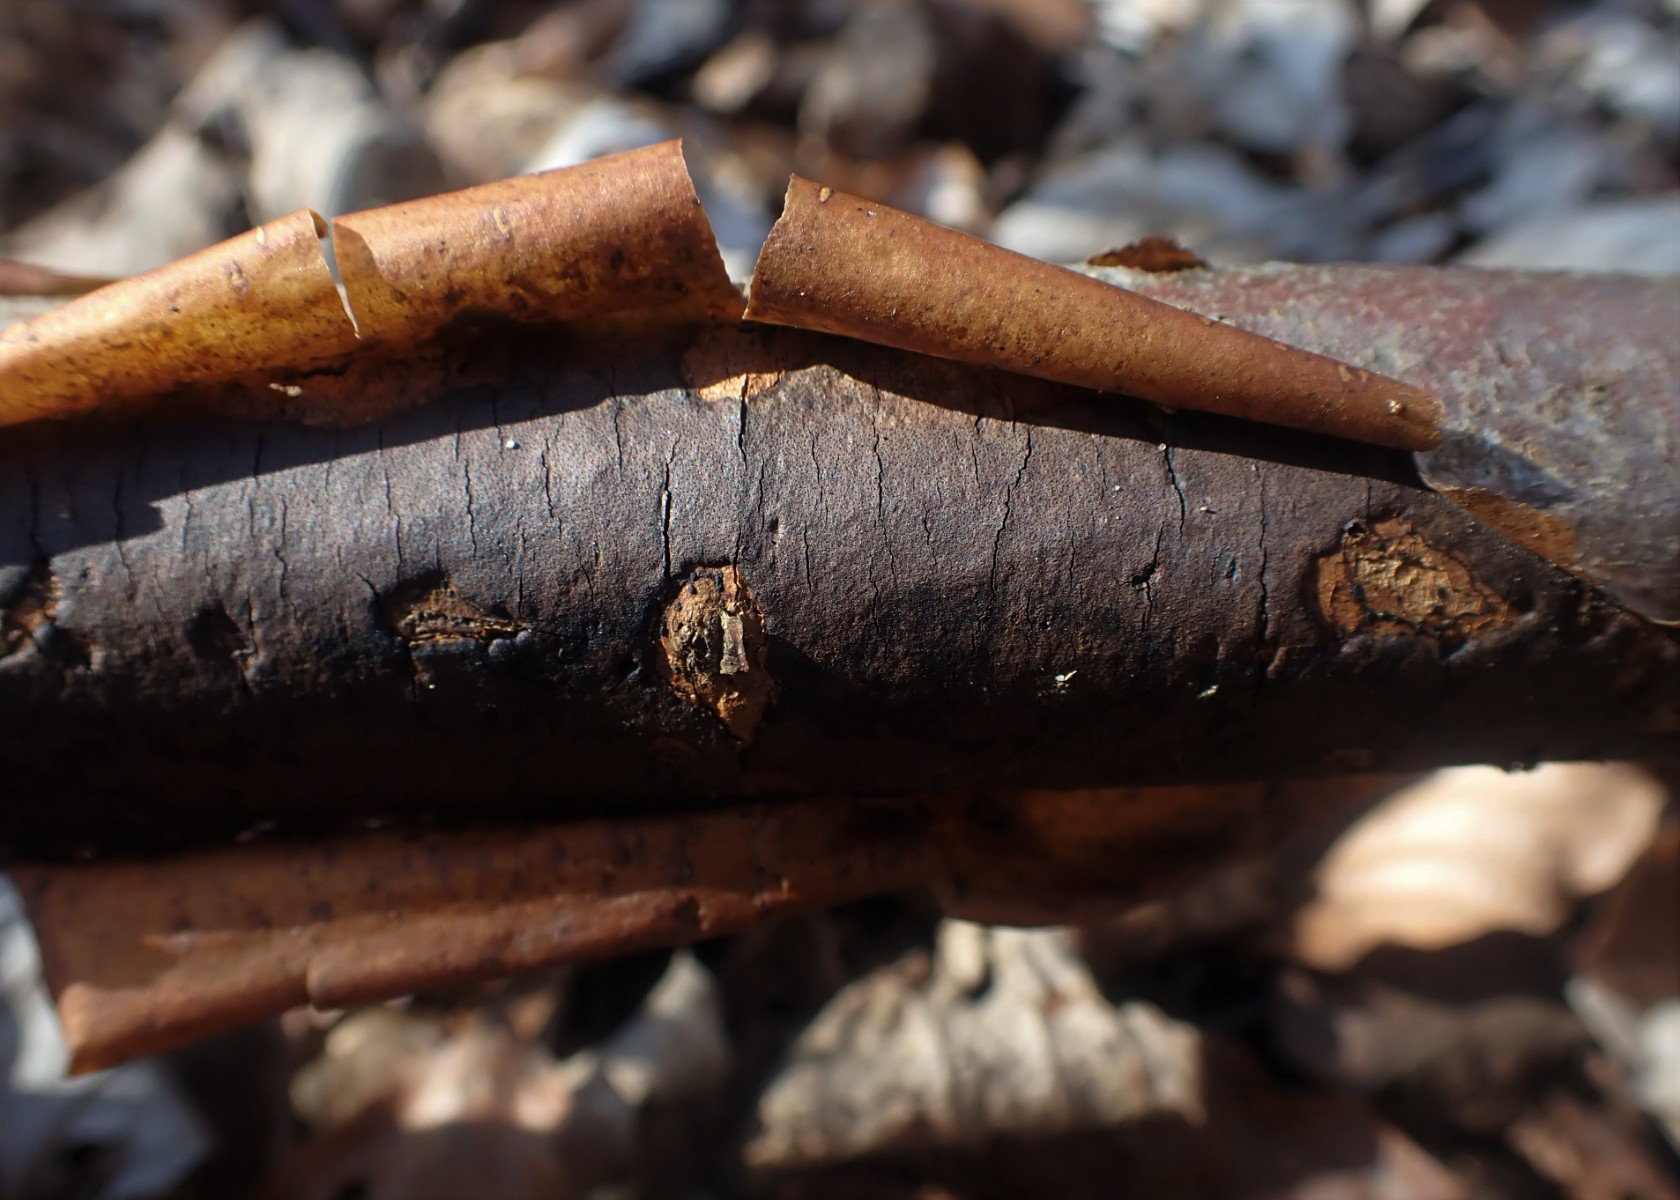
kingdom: Fungi
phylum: Ascomycota
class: Sordariomycetes
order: Xylariales
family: Diatrypaceae
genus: Diatrype
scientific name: Diatrype decorticata
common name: barksprænger-kulskorpe
